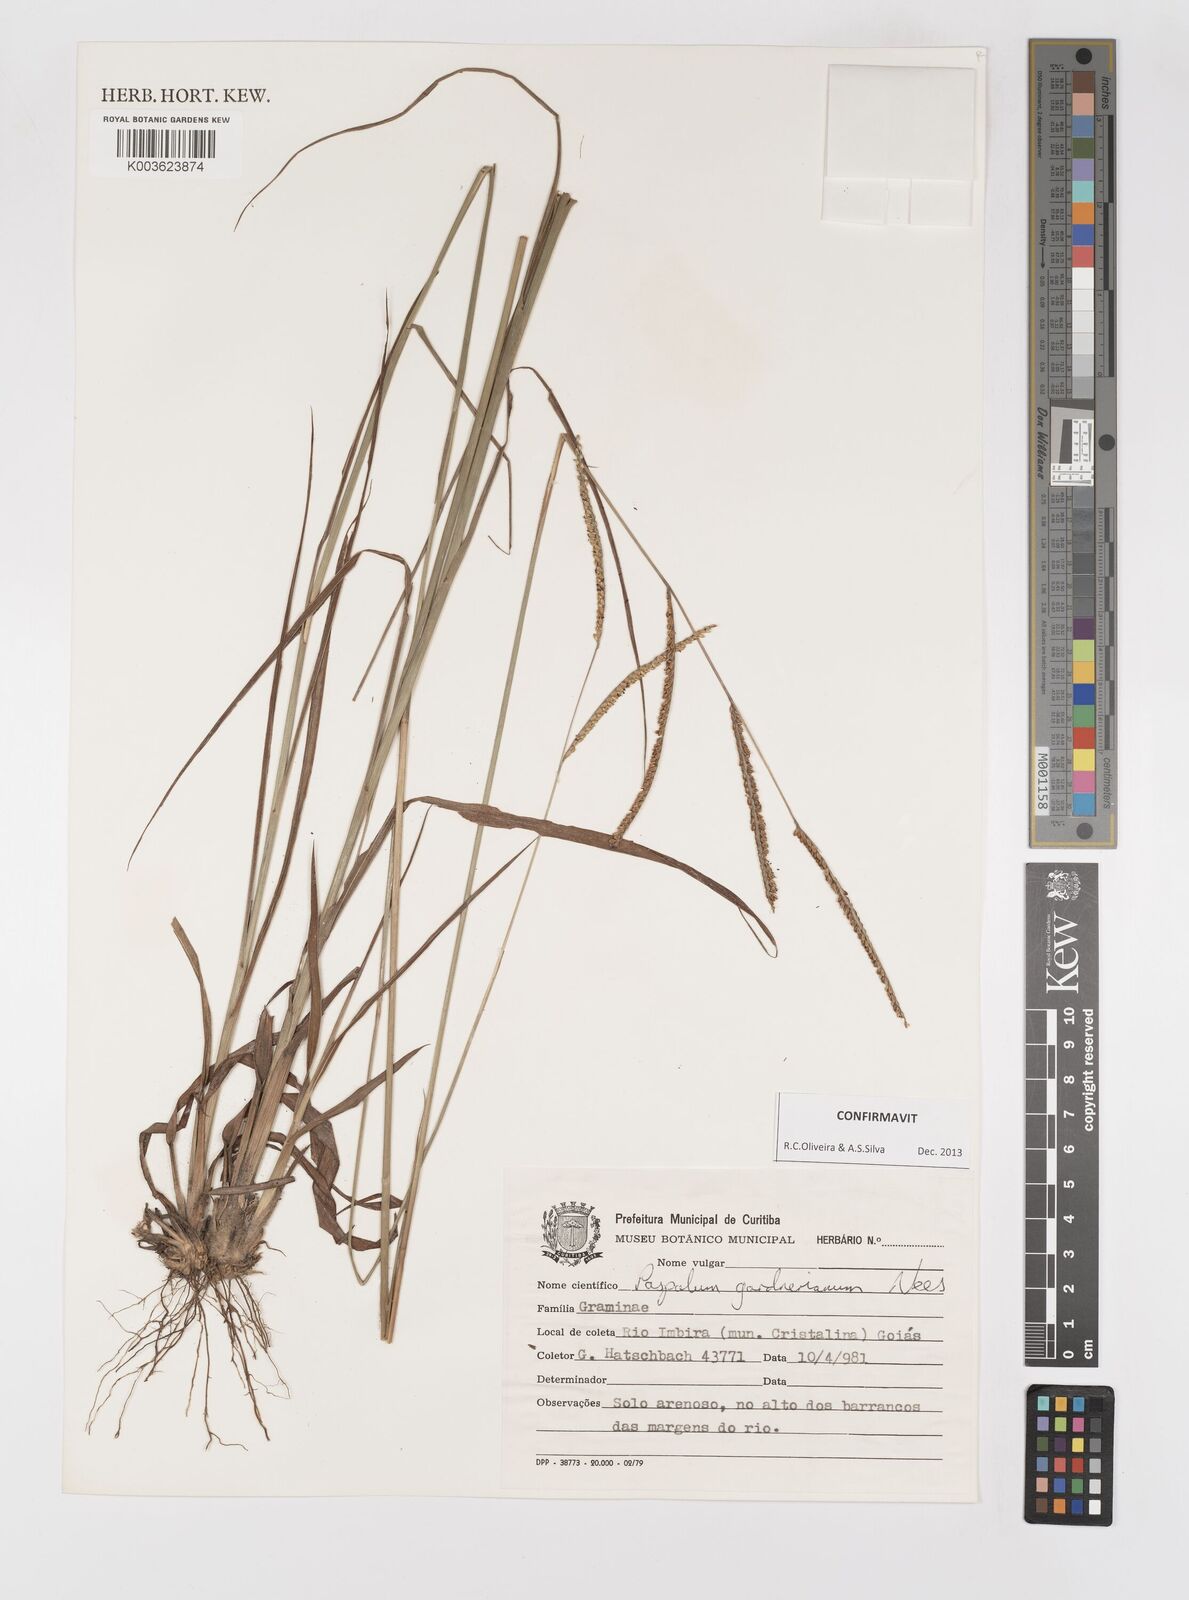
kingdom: Plantae
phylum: Tracheophyta
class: Liliopsida
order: Poales
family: Poaceae
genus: Paspalum
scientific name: Paspalum gardnerianum
